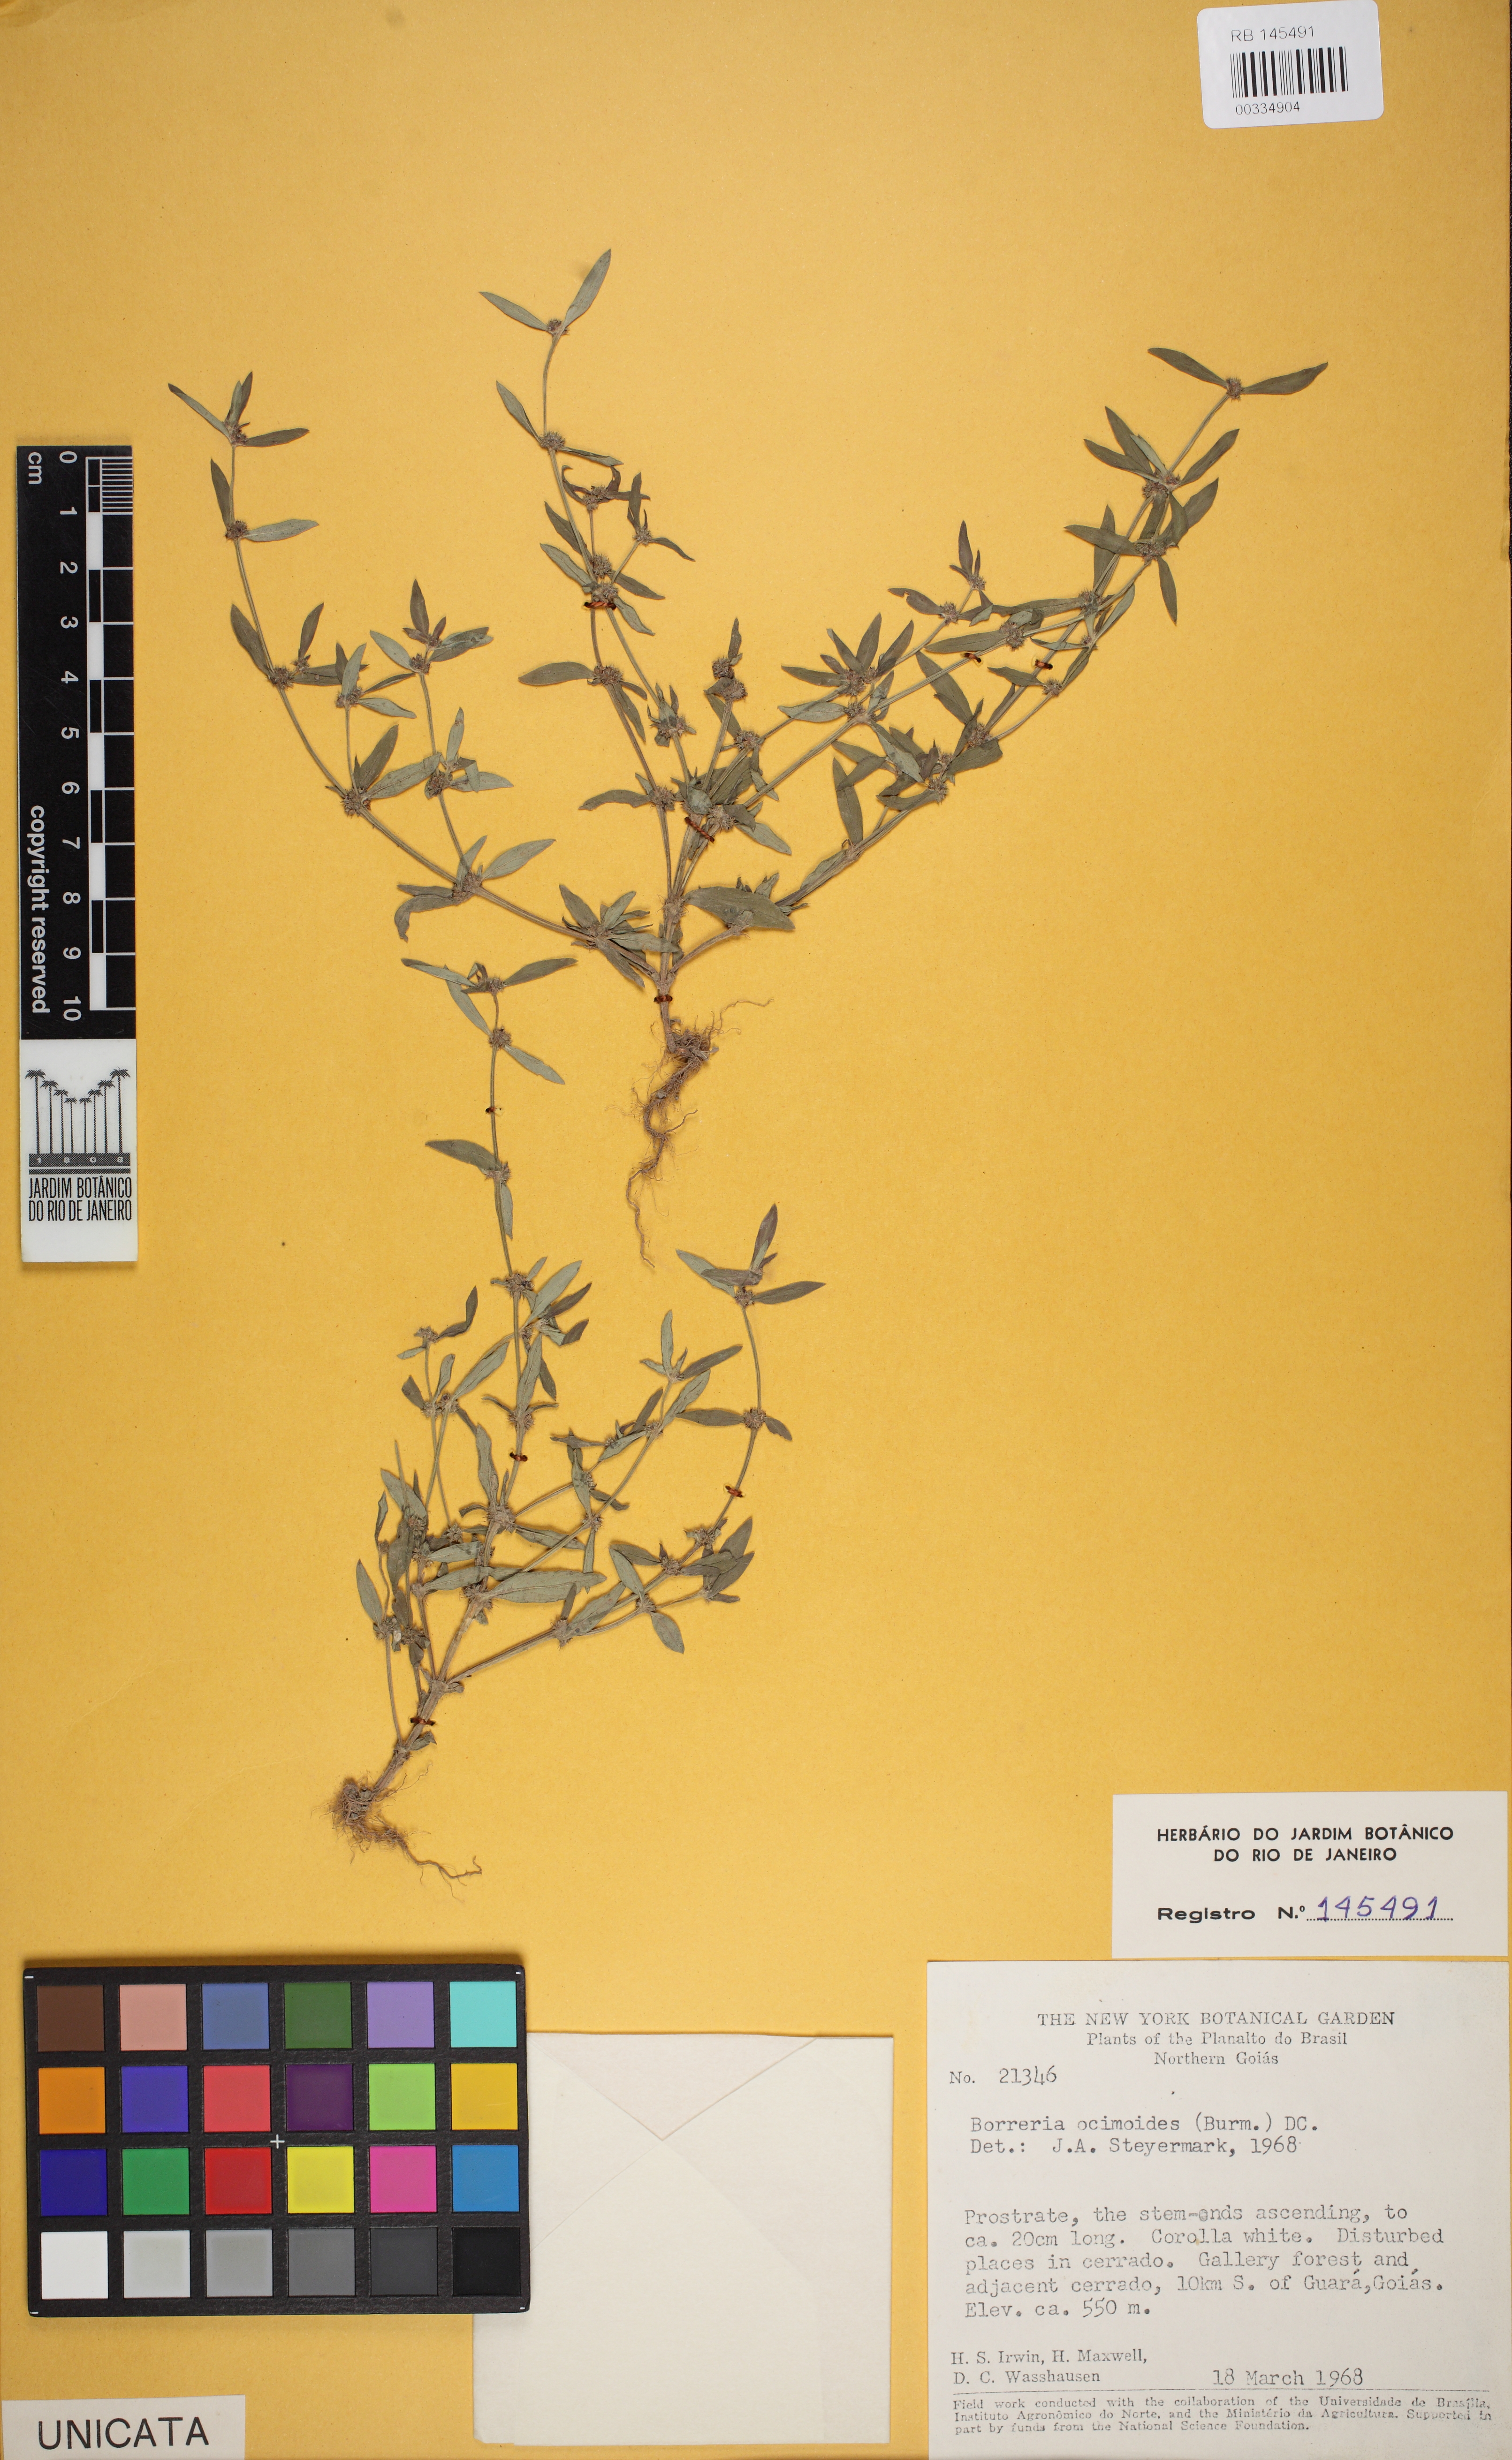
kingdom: Plantae
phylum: Tracheophyta
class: Magnoliopsida
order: Gentianales
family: Rubiaceae
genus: Spermacoce
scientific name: Spermacoce ocymoides
